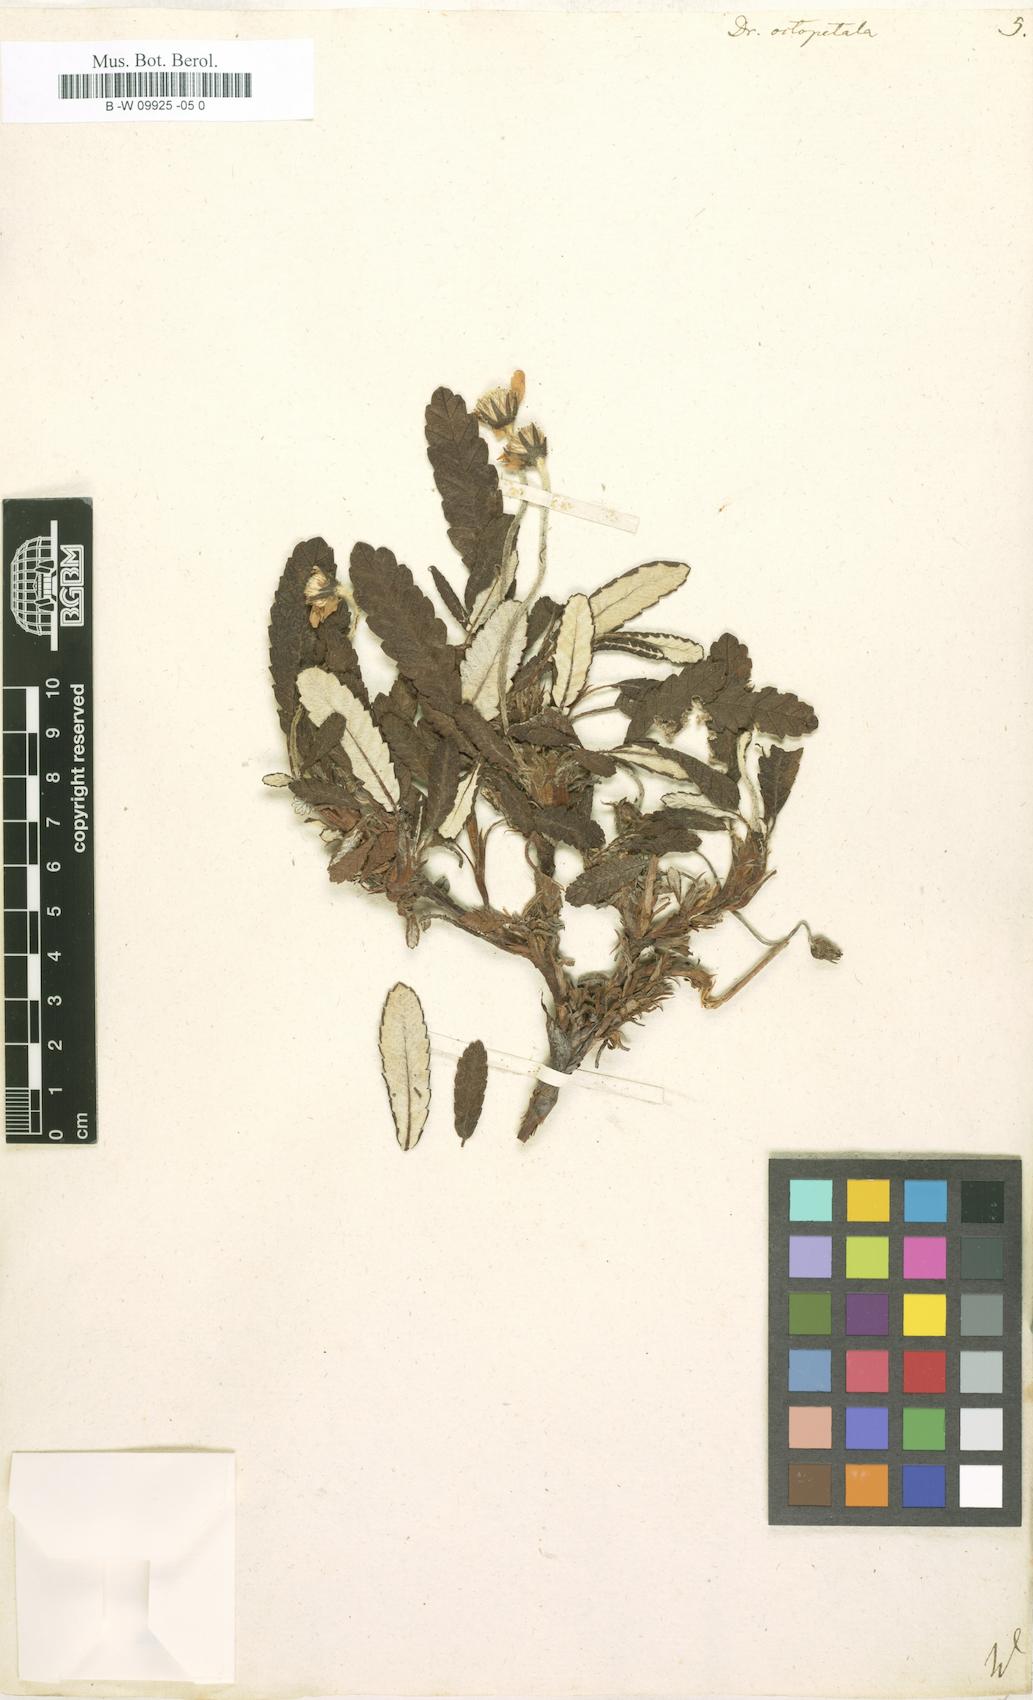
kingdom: Plantae
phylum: Tracheophyta
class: Magnoliopsida
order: Rosales
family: Rosaceae
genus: Dryas
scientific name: Dryas octopetala
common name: Eight-petal mountain-avens
